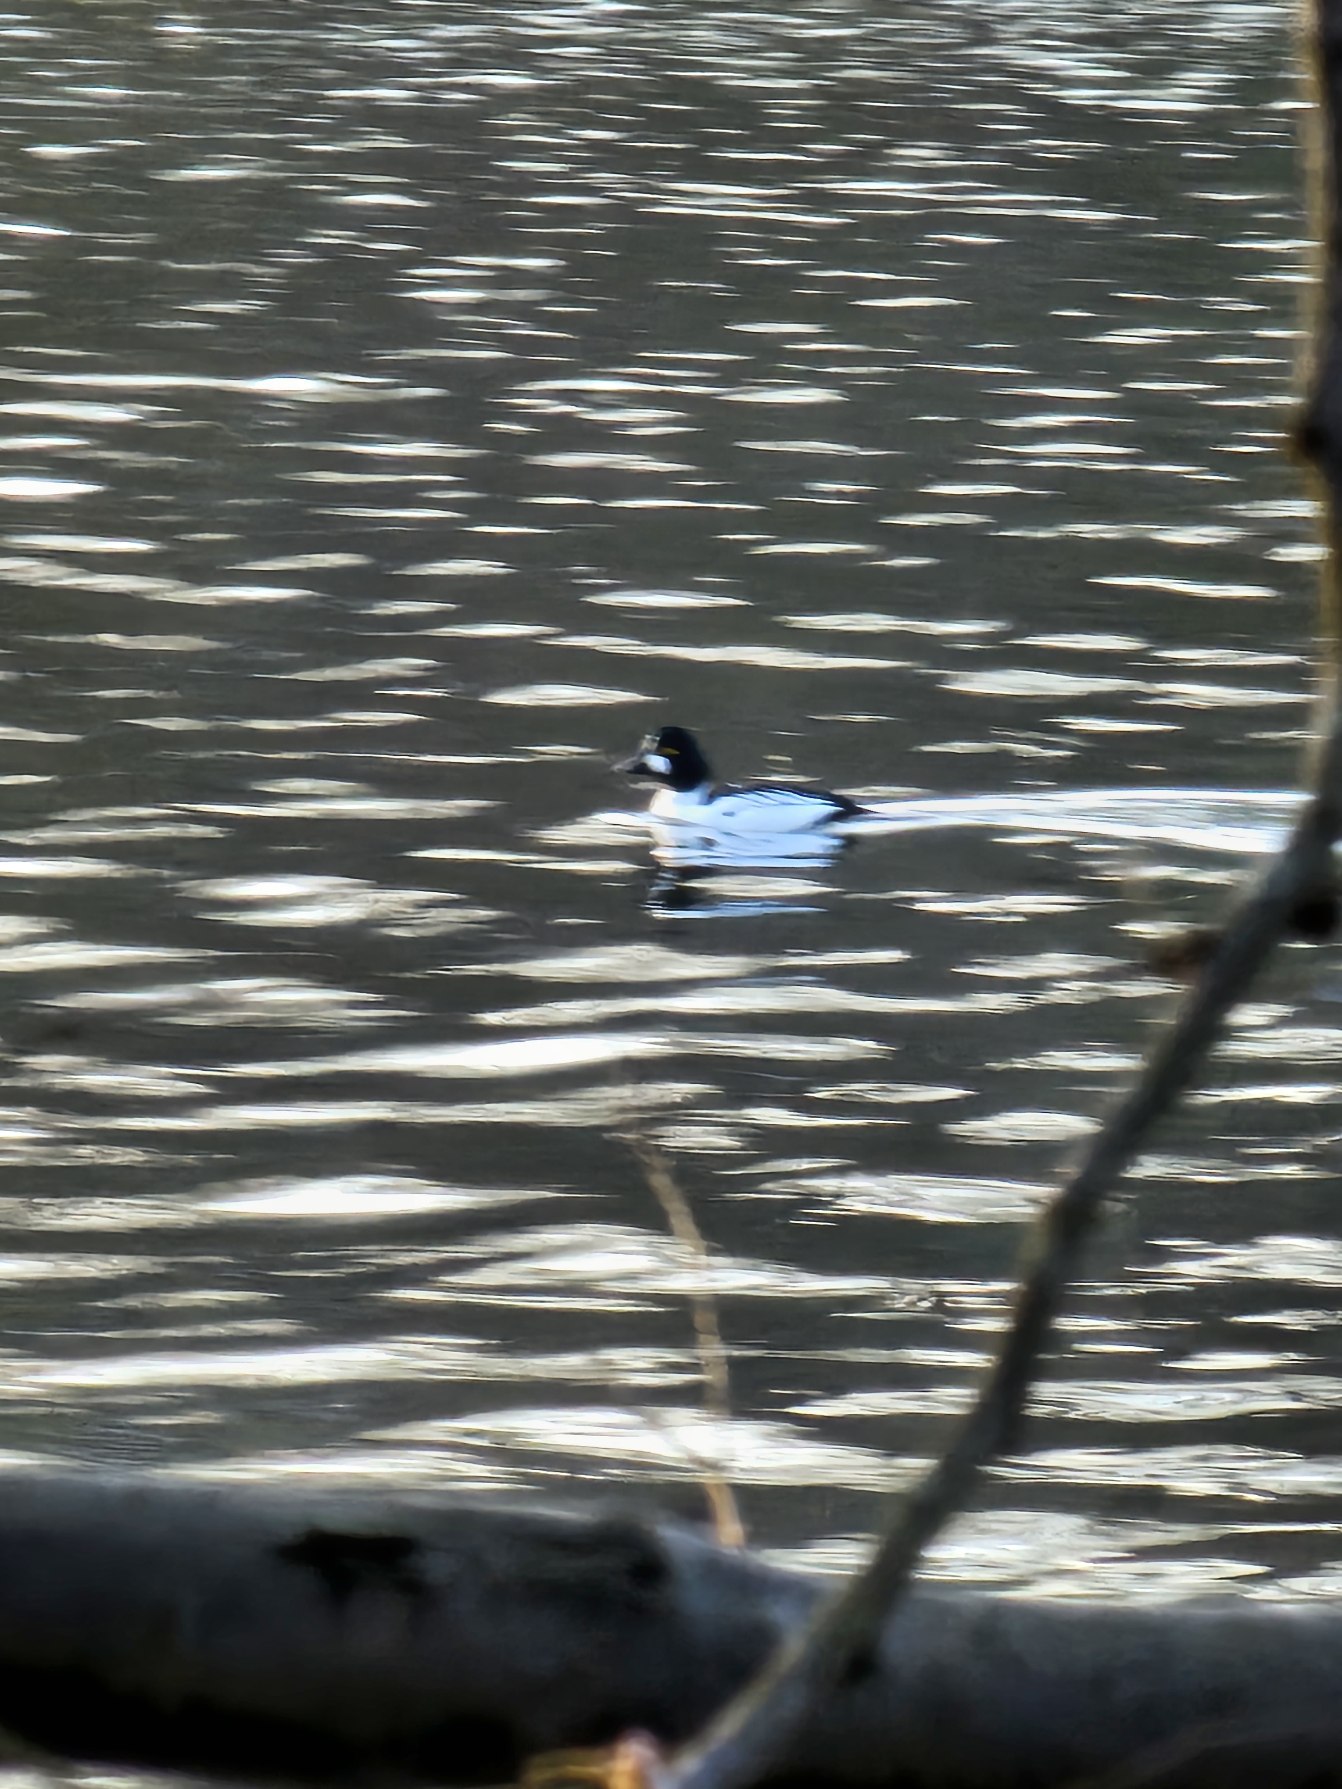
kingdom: Animalia
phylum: Chordata
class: Aves
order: Anseriformes
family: Anatidae
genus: Bucephala
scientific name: Bucephala clangula
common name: Hvinand
